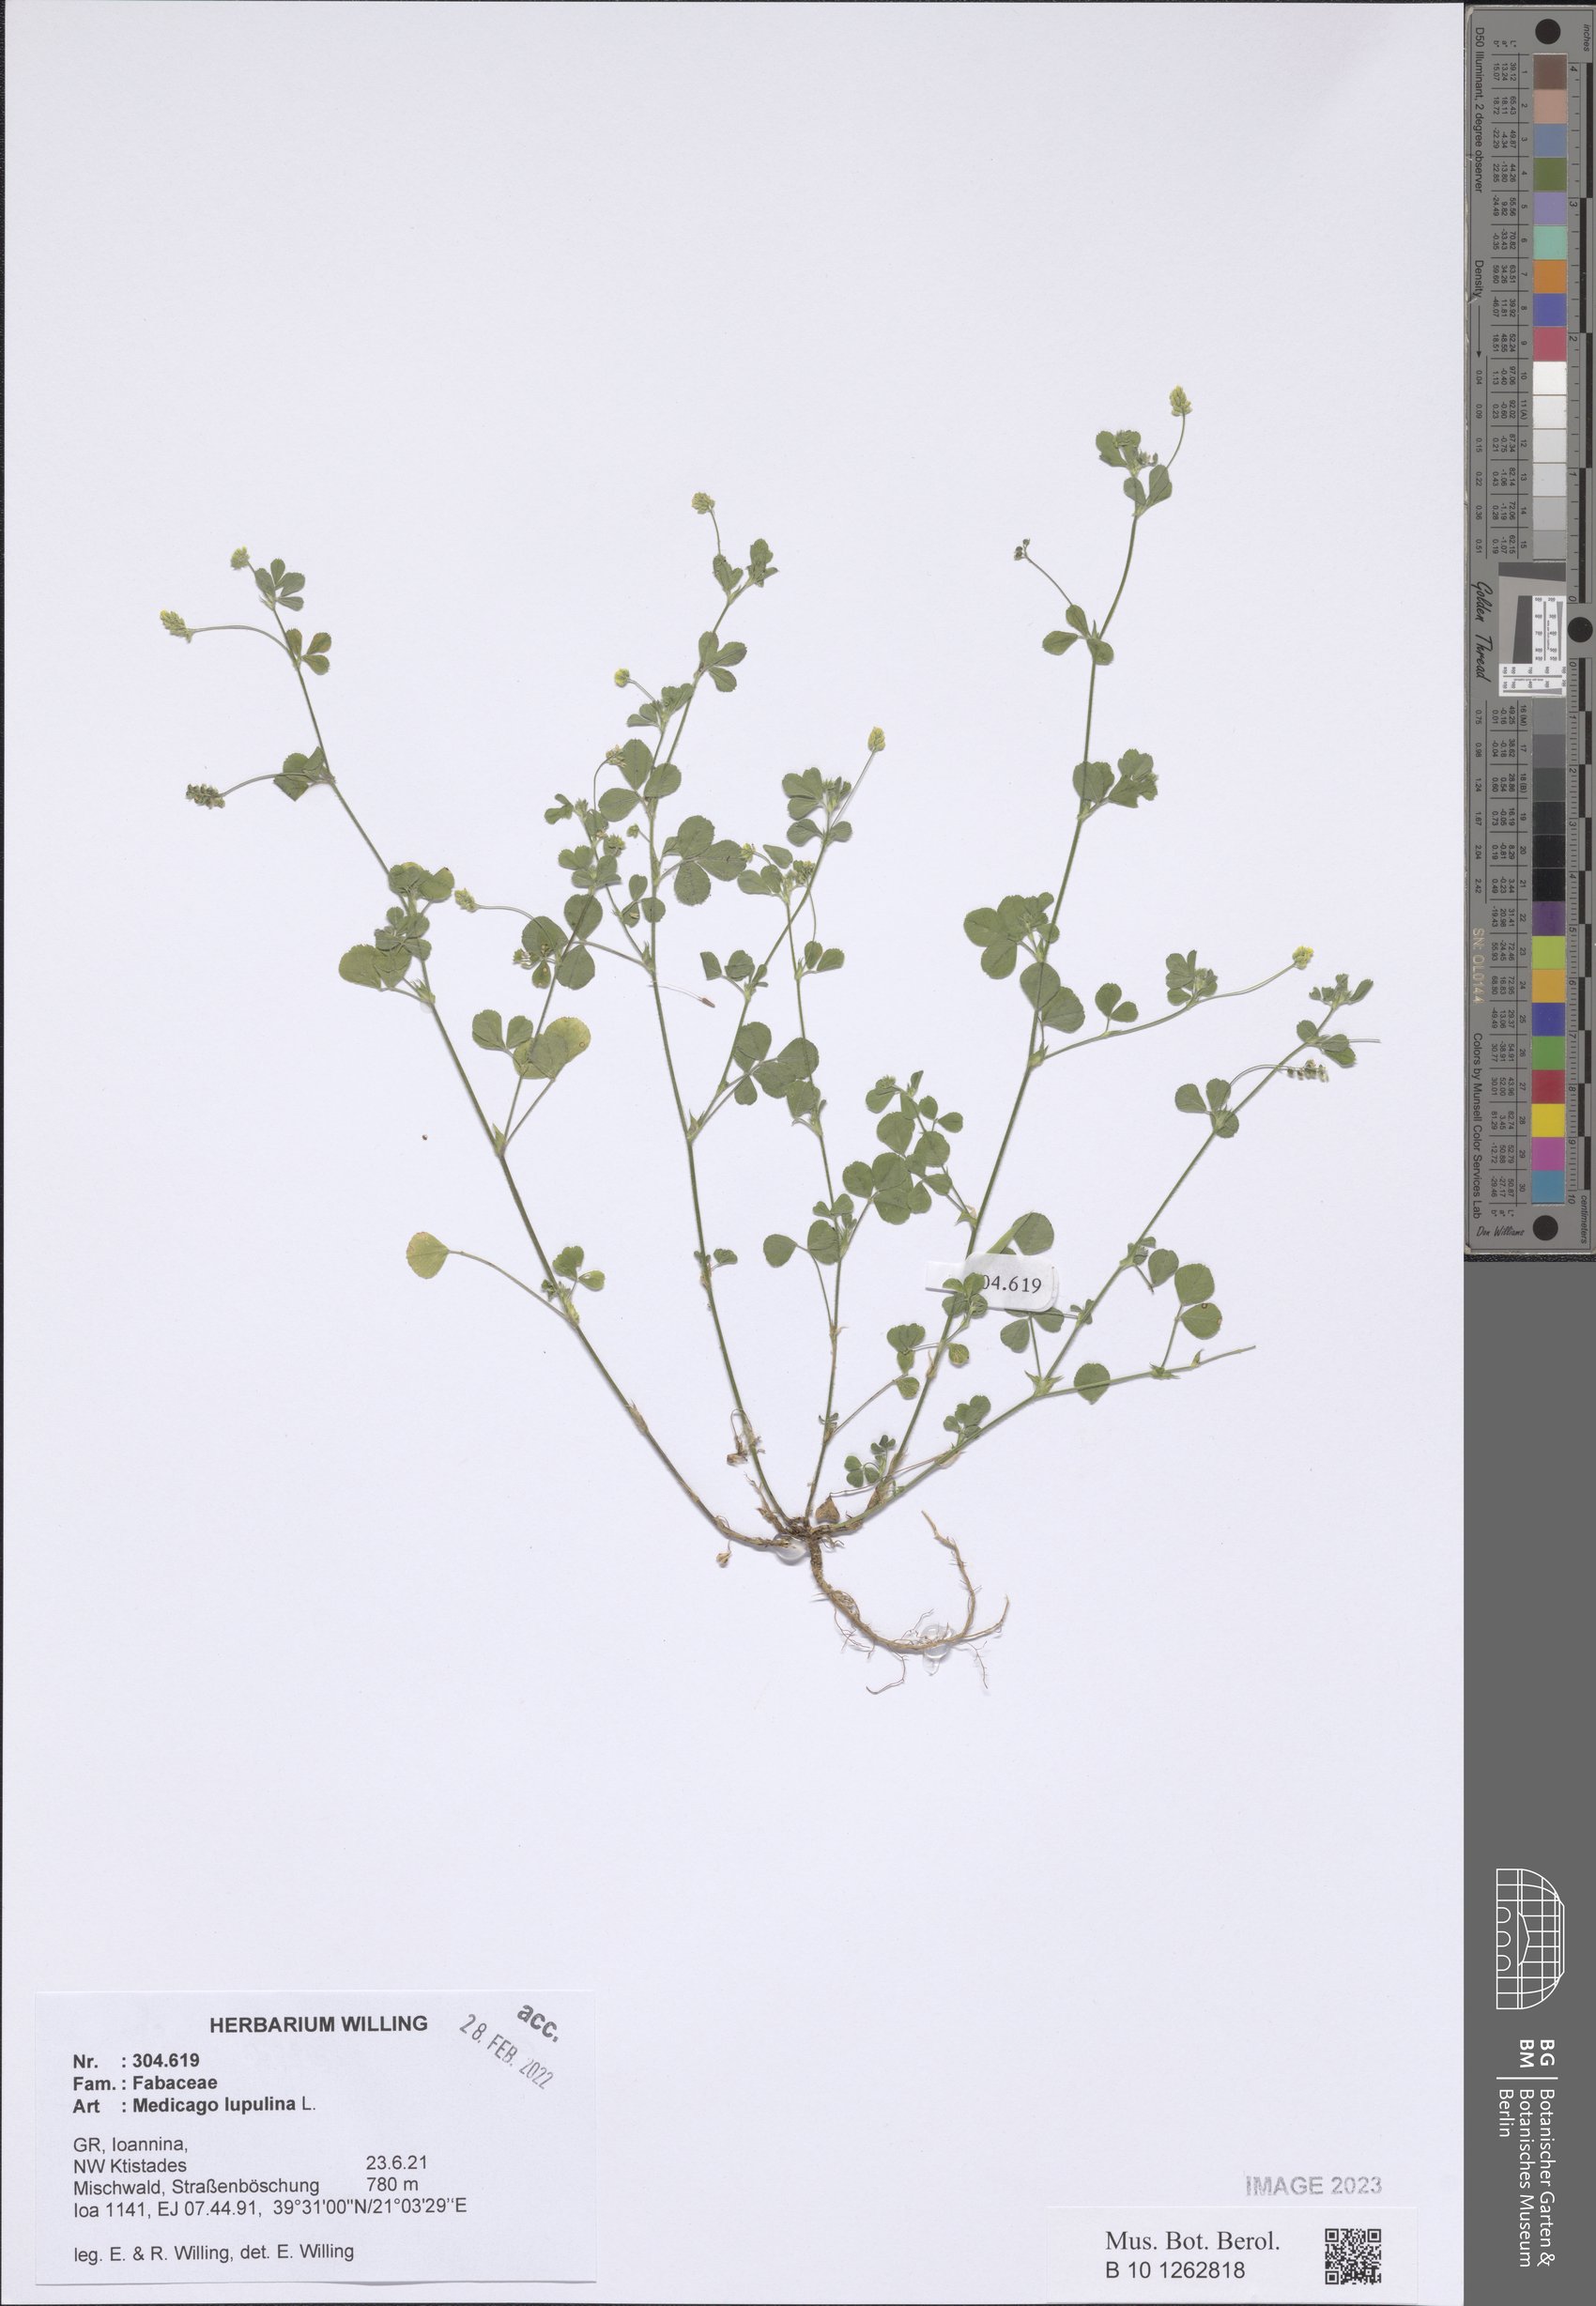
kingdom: Plantae
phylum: Tracheophyta
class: Magnoliopsida
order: Fabales
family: Fabaceae
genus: Medicago
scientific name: Medicago lupulina
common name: Black medick
